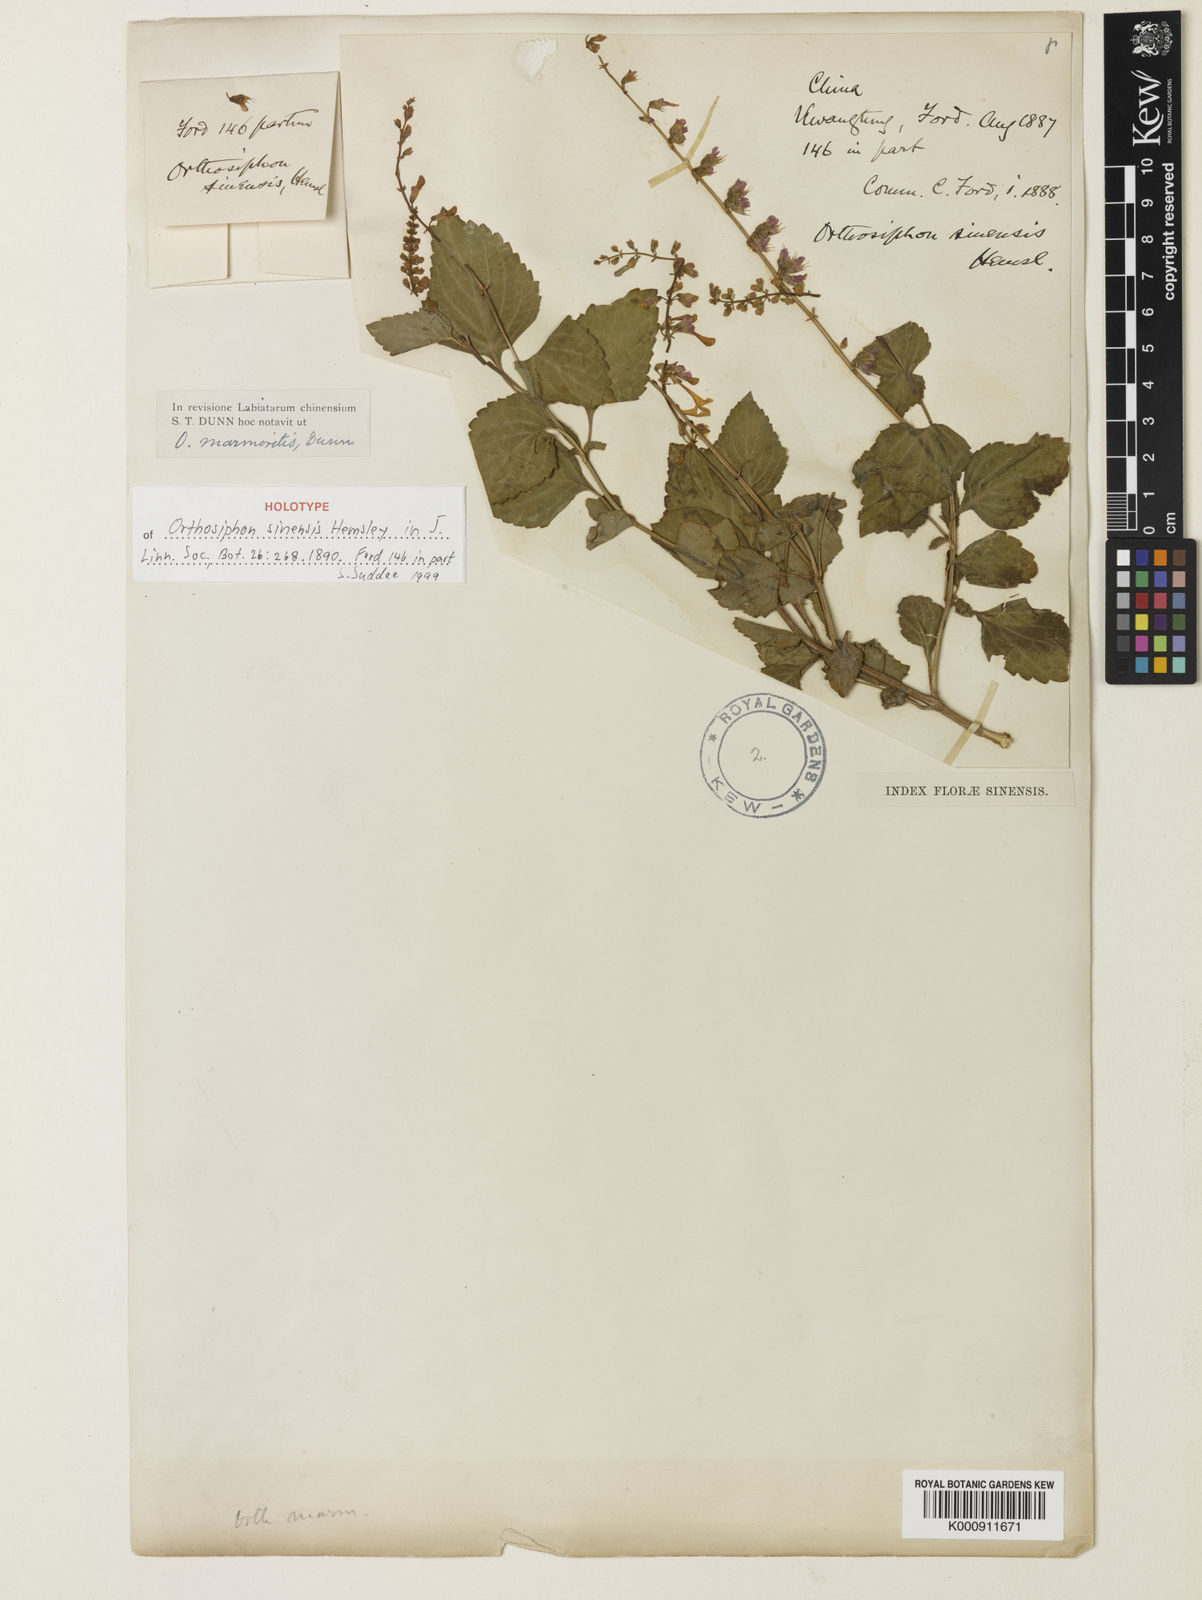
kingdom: Plantae
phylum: Tracheophyta
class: Magnoliopsida
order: Lamiales
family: Lamiaceae
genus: Orthosiphon
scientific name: Orthosiphon thymiflorus
